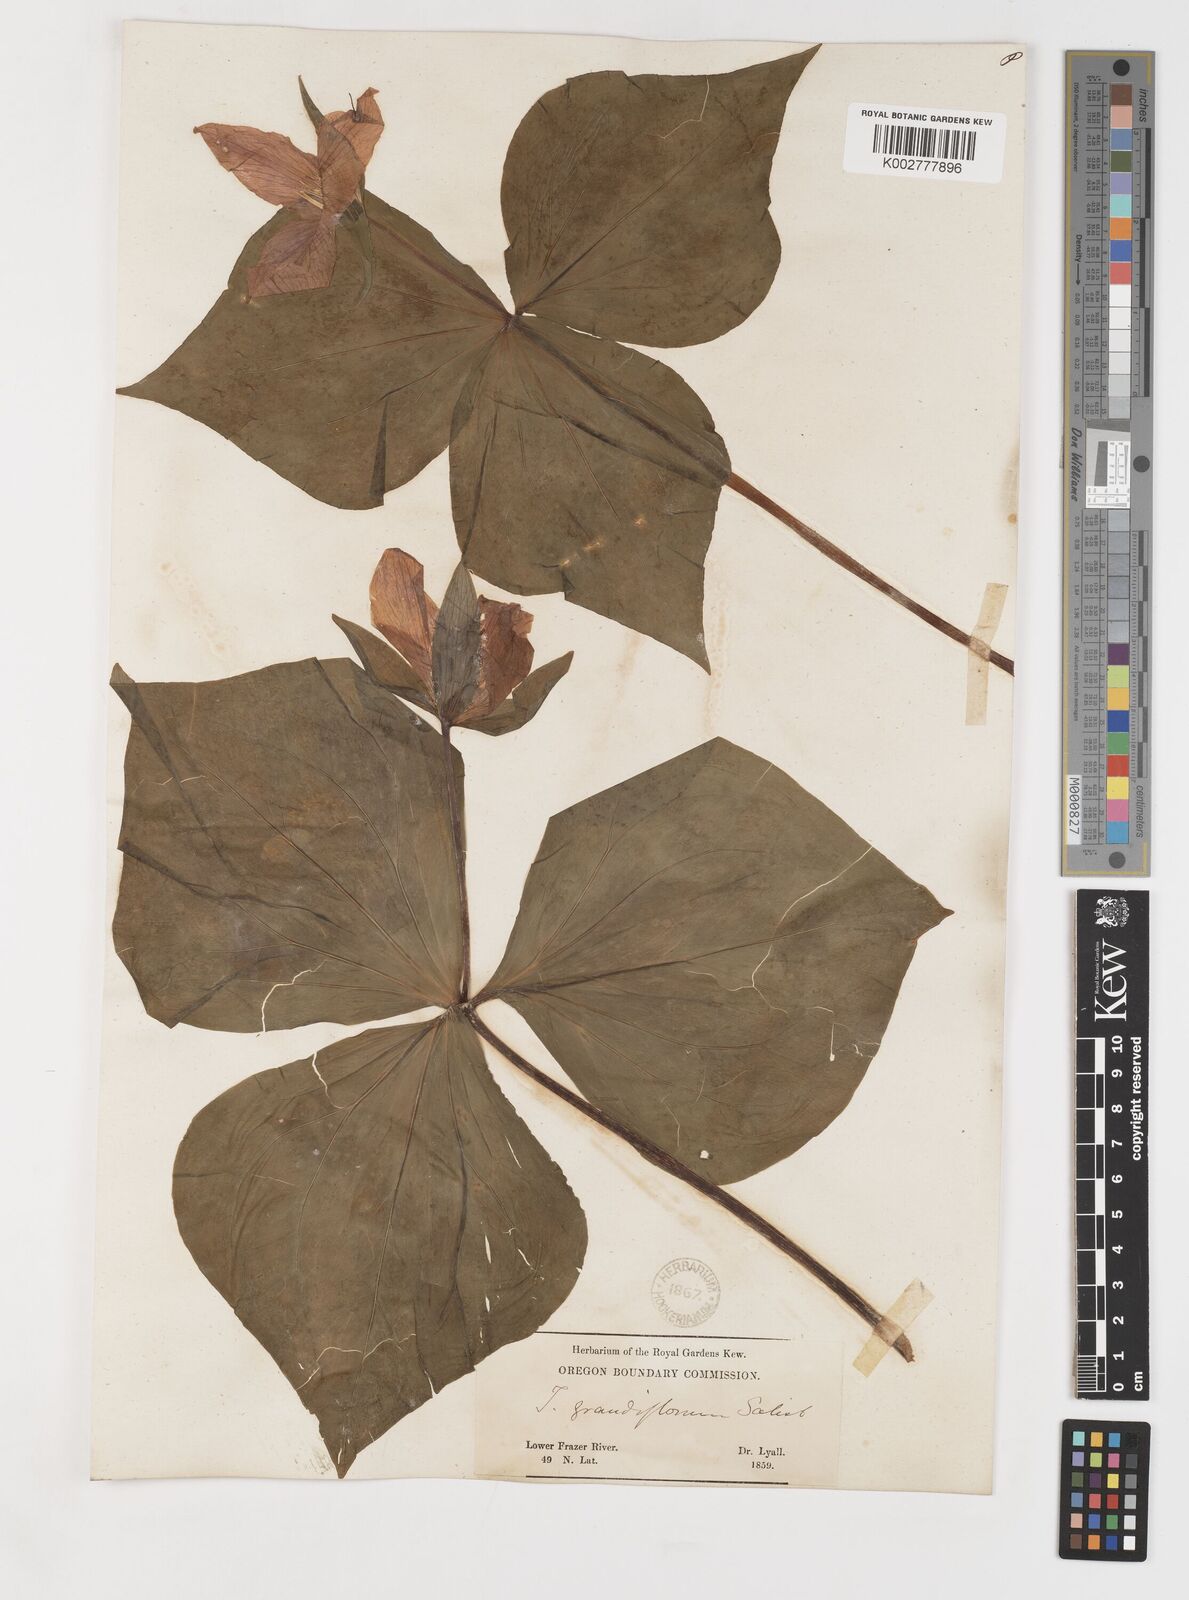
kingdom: Plantae
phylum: Tracheophyta
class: Liliopsida
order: Liliales
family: Melanthiaceae
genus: Trillium
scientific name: Trillium grandiflorum
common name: Great white trillium
